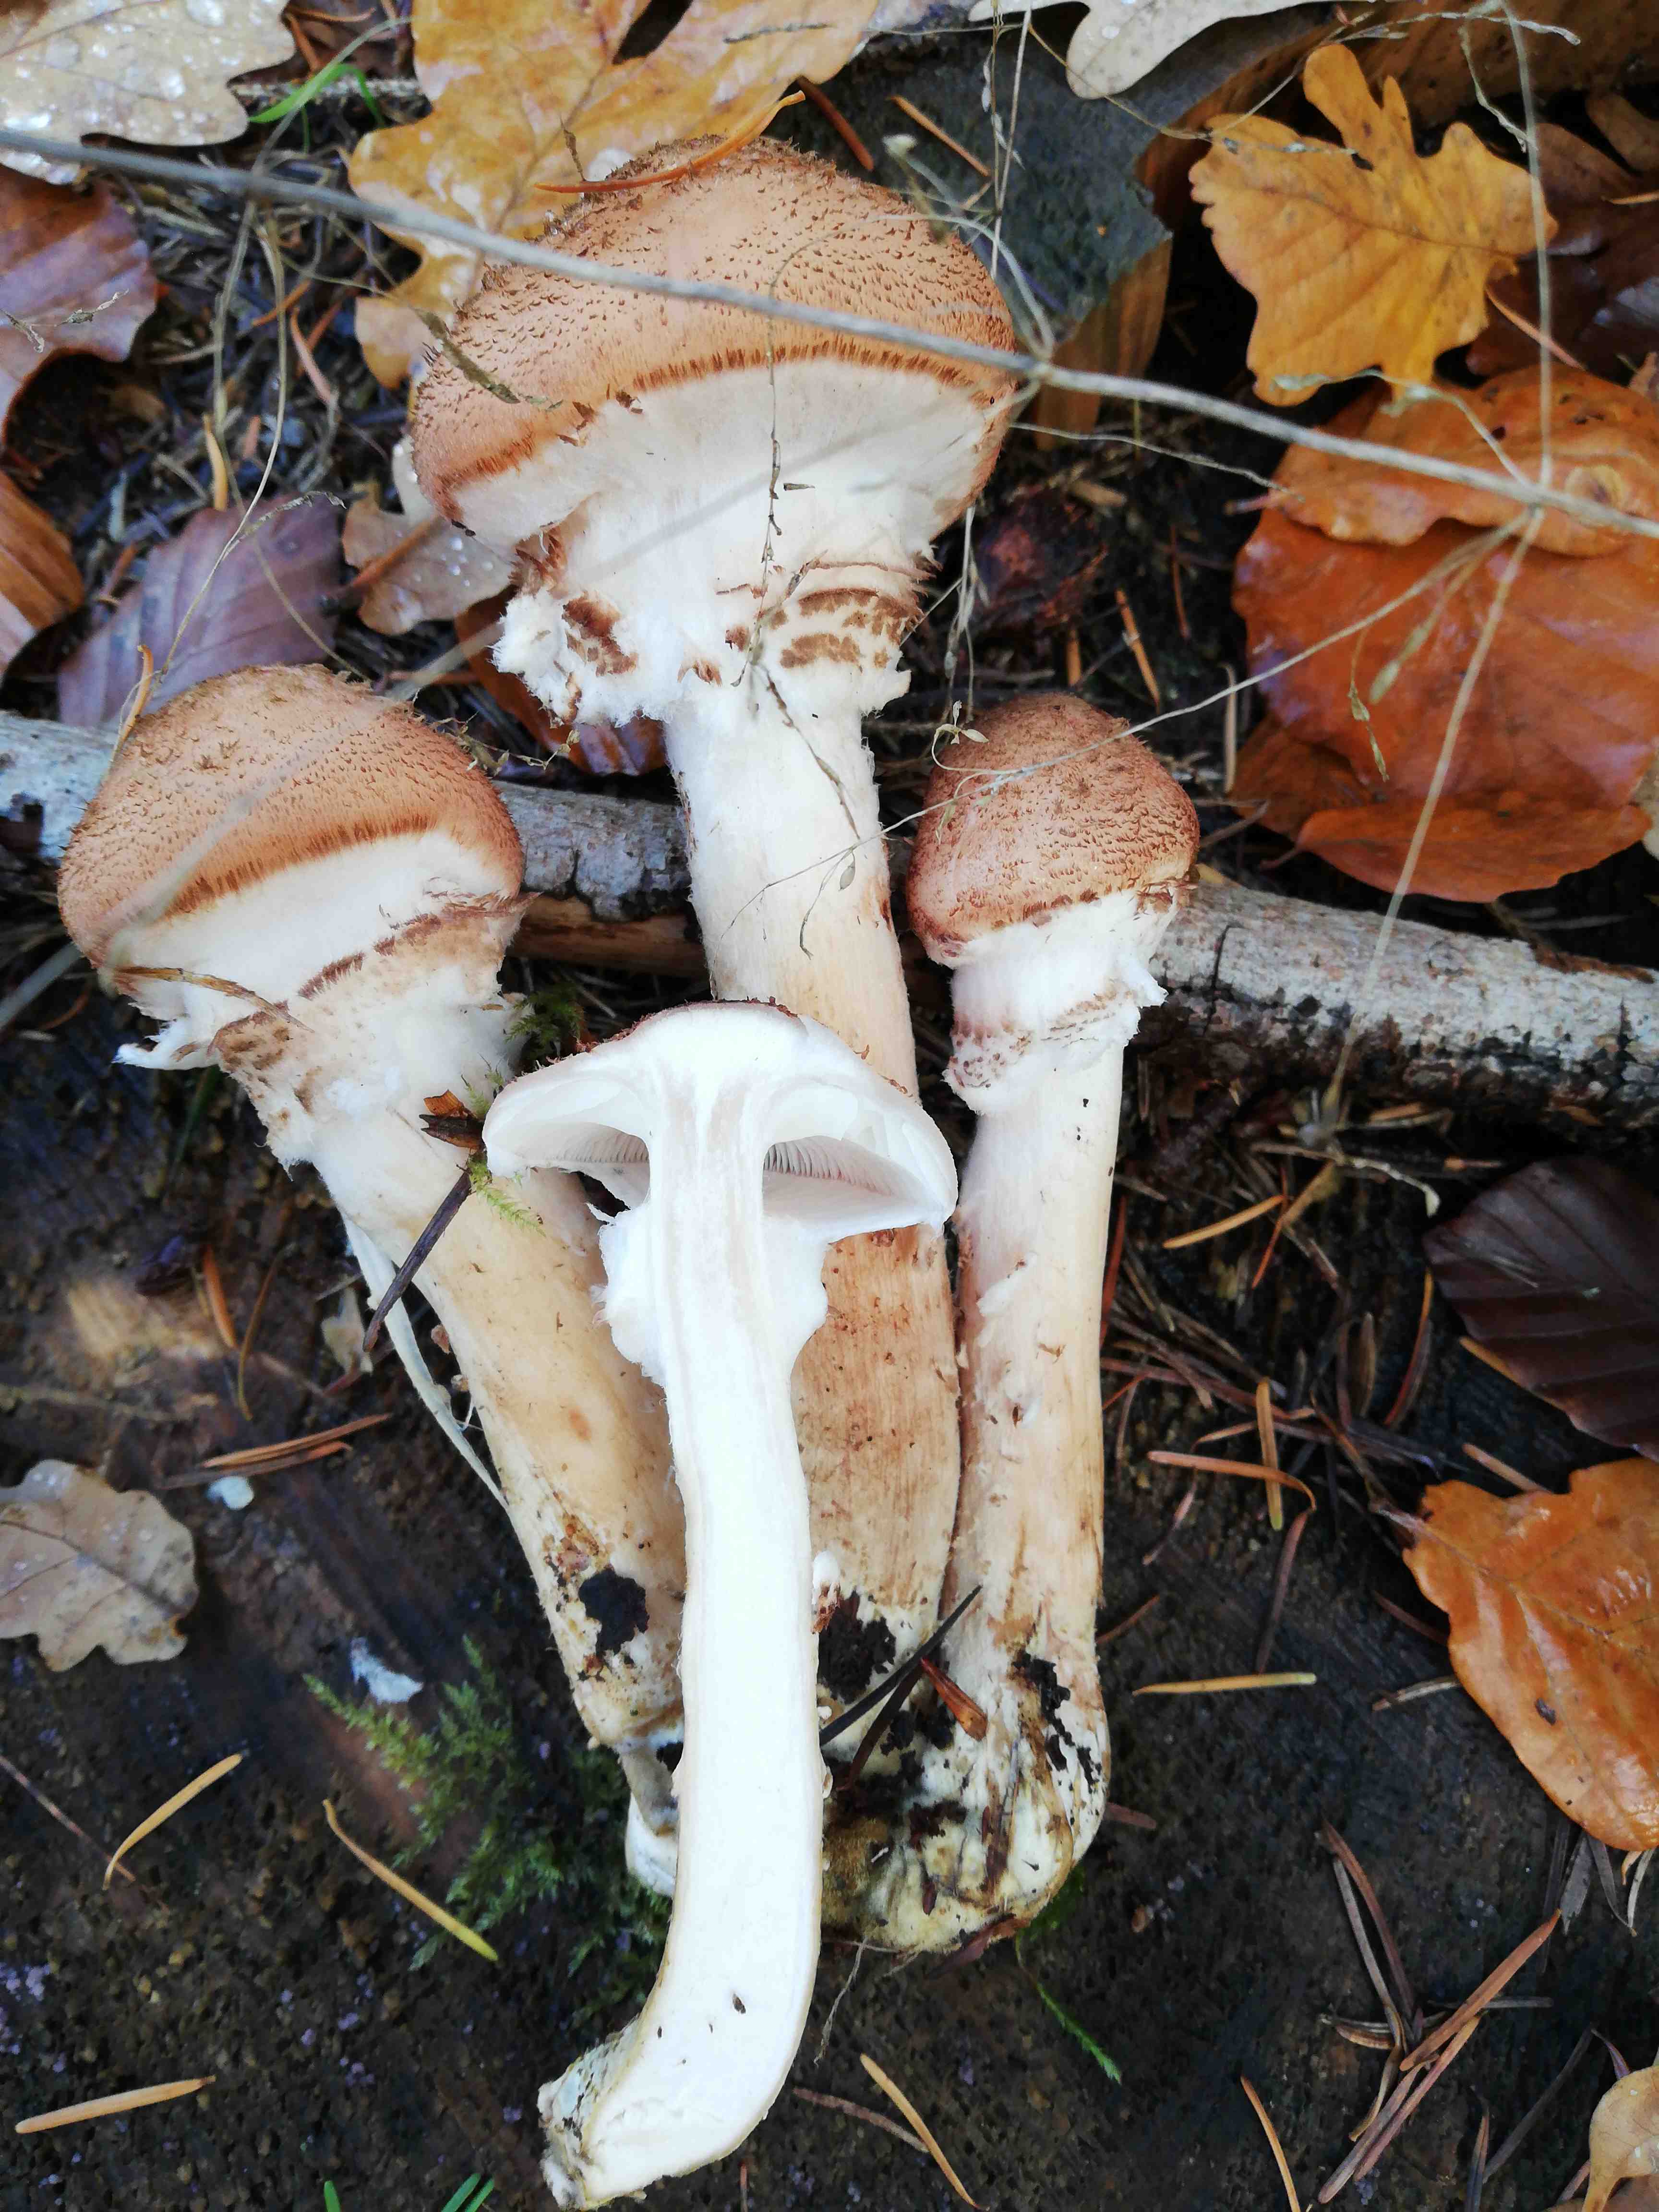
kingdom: Fungi
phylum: Basidiomycota
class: Agaricomycetes
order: Agaricales
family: Physalacriaceae
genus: Armillaria
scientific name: Armillaria ostoyae
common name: mørk honningsvamp
